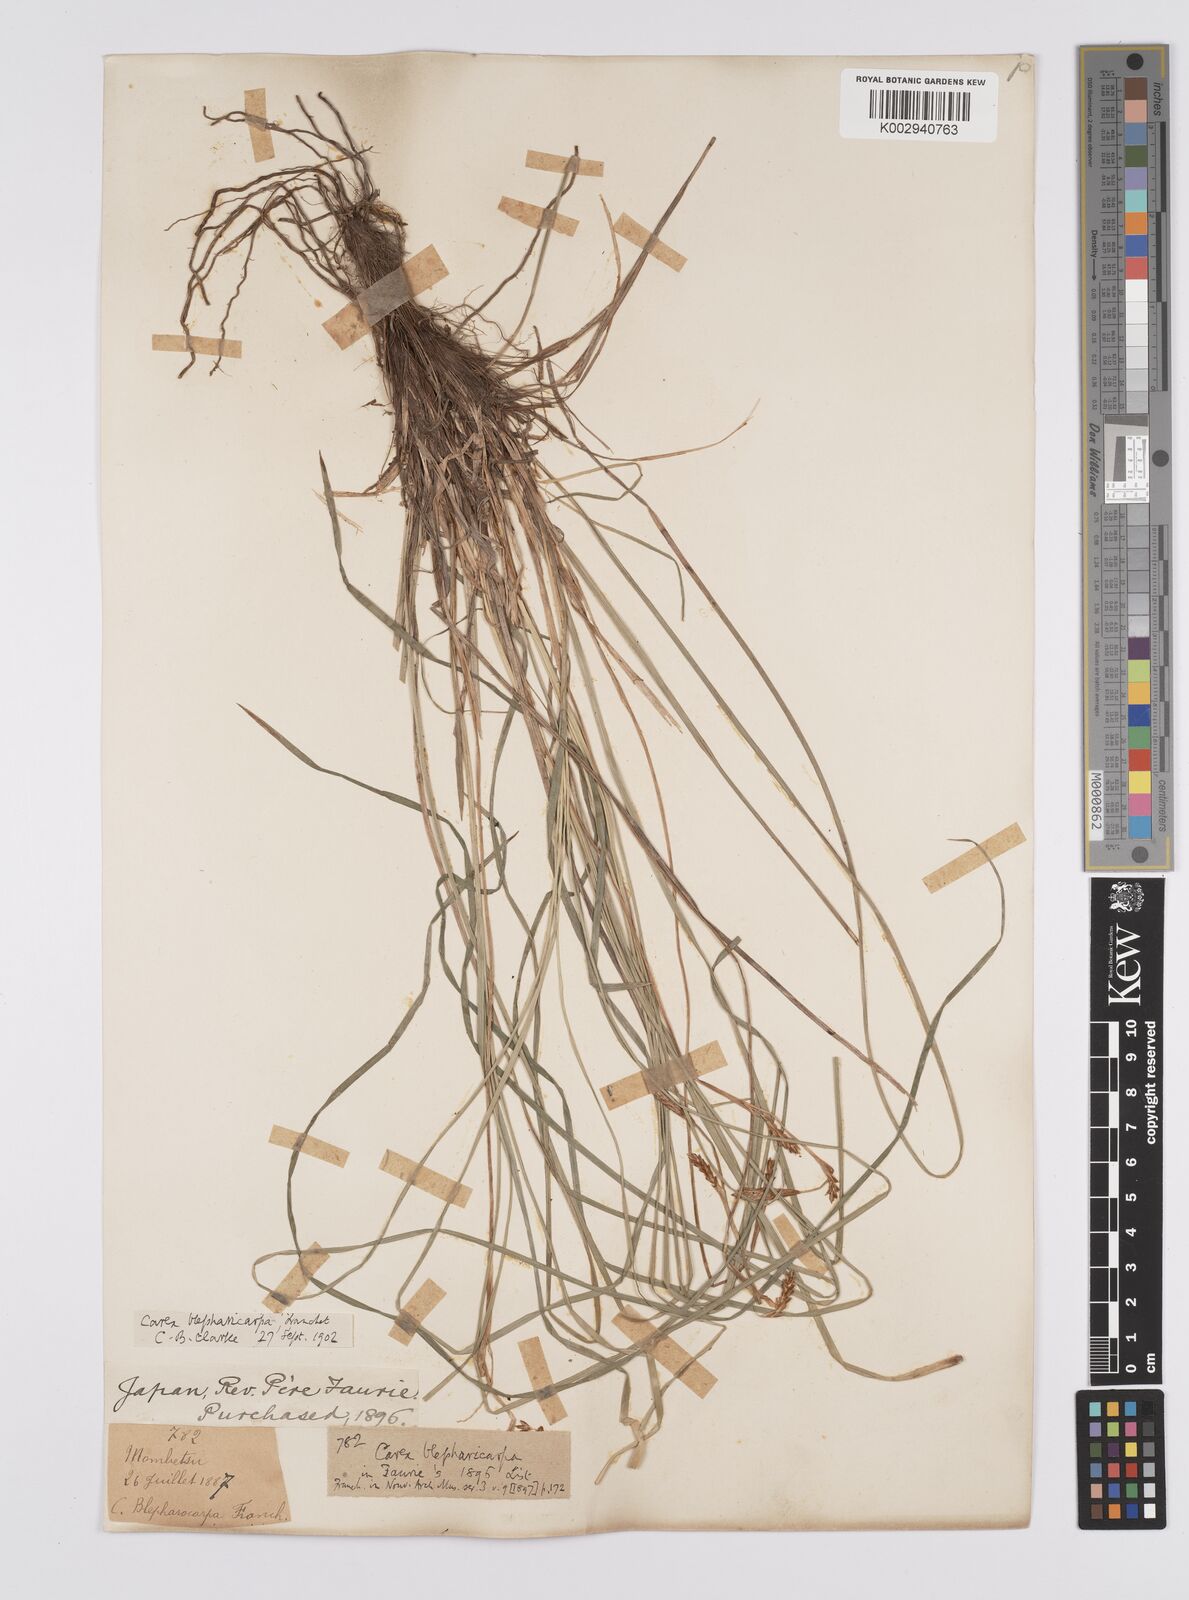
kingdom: Plantae
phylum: Tracheophyta
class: Liliopsida
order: Poales
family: Cyperaceae
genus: Carex
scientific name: Carex blepharicarpa
